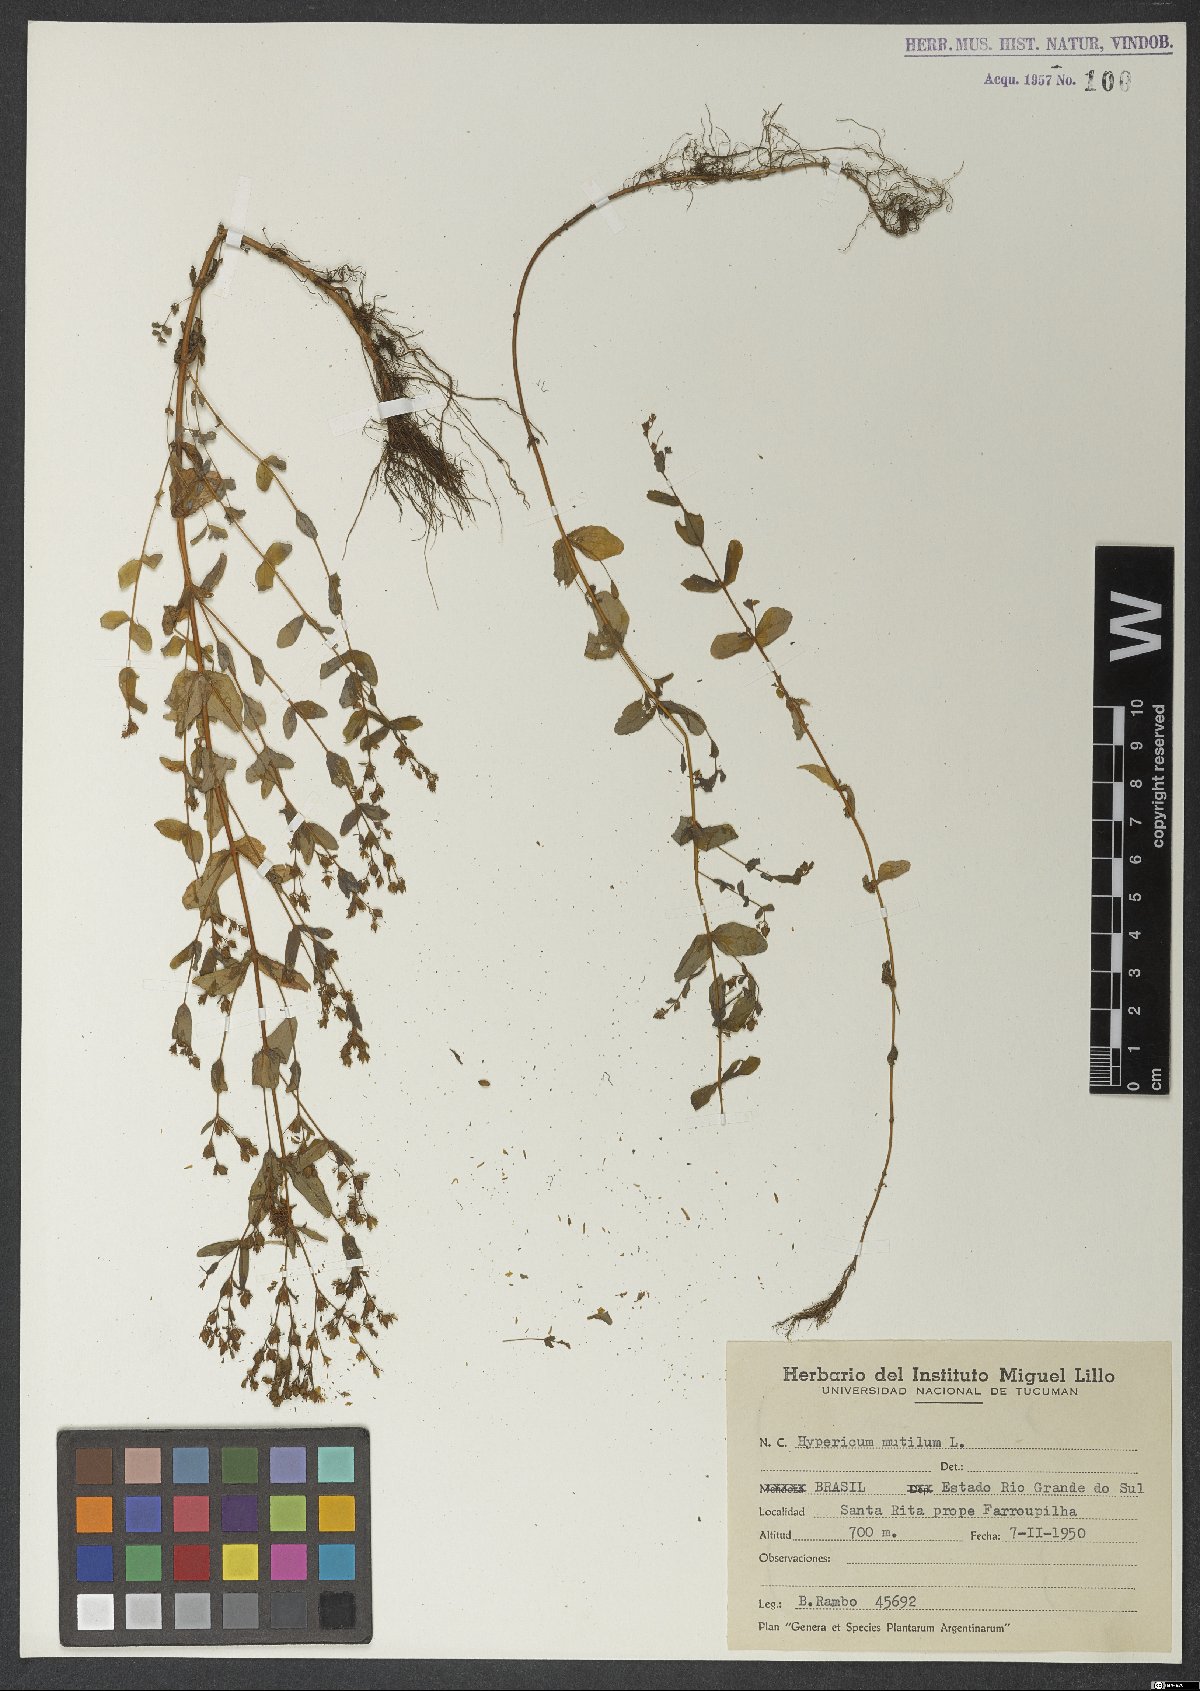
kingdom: Plantae
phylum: Tracheophyta
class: Magnoliopsida
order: Malpighiales
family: Hypericaceae
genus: Hypericum
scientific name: Hypericum mutilum
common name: Dwarf st. john's-wort
